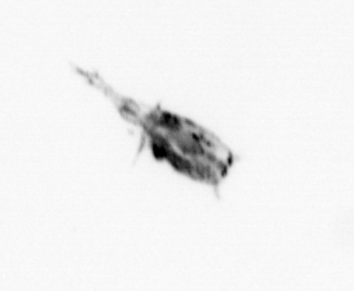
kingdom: Animalia
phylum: Arthropoda
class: Copepoda
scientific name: Copepoda
